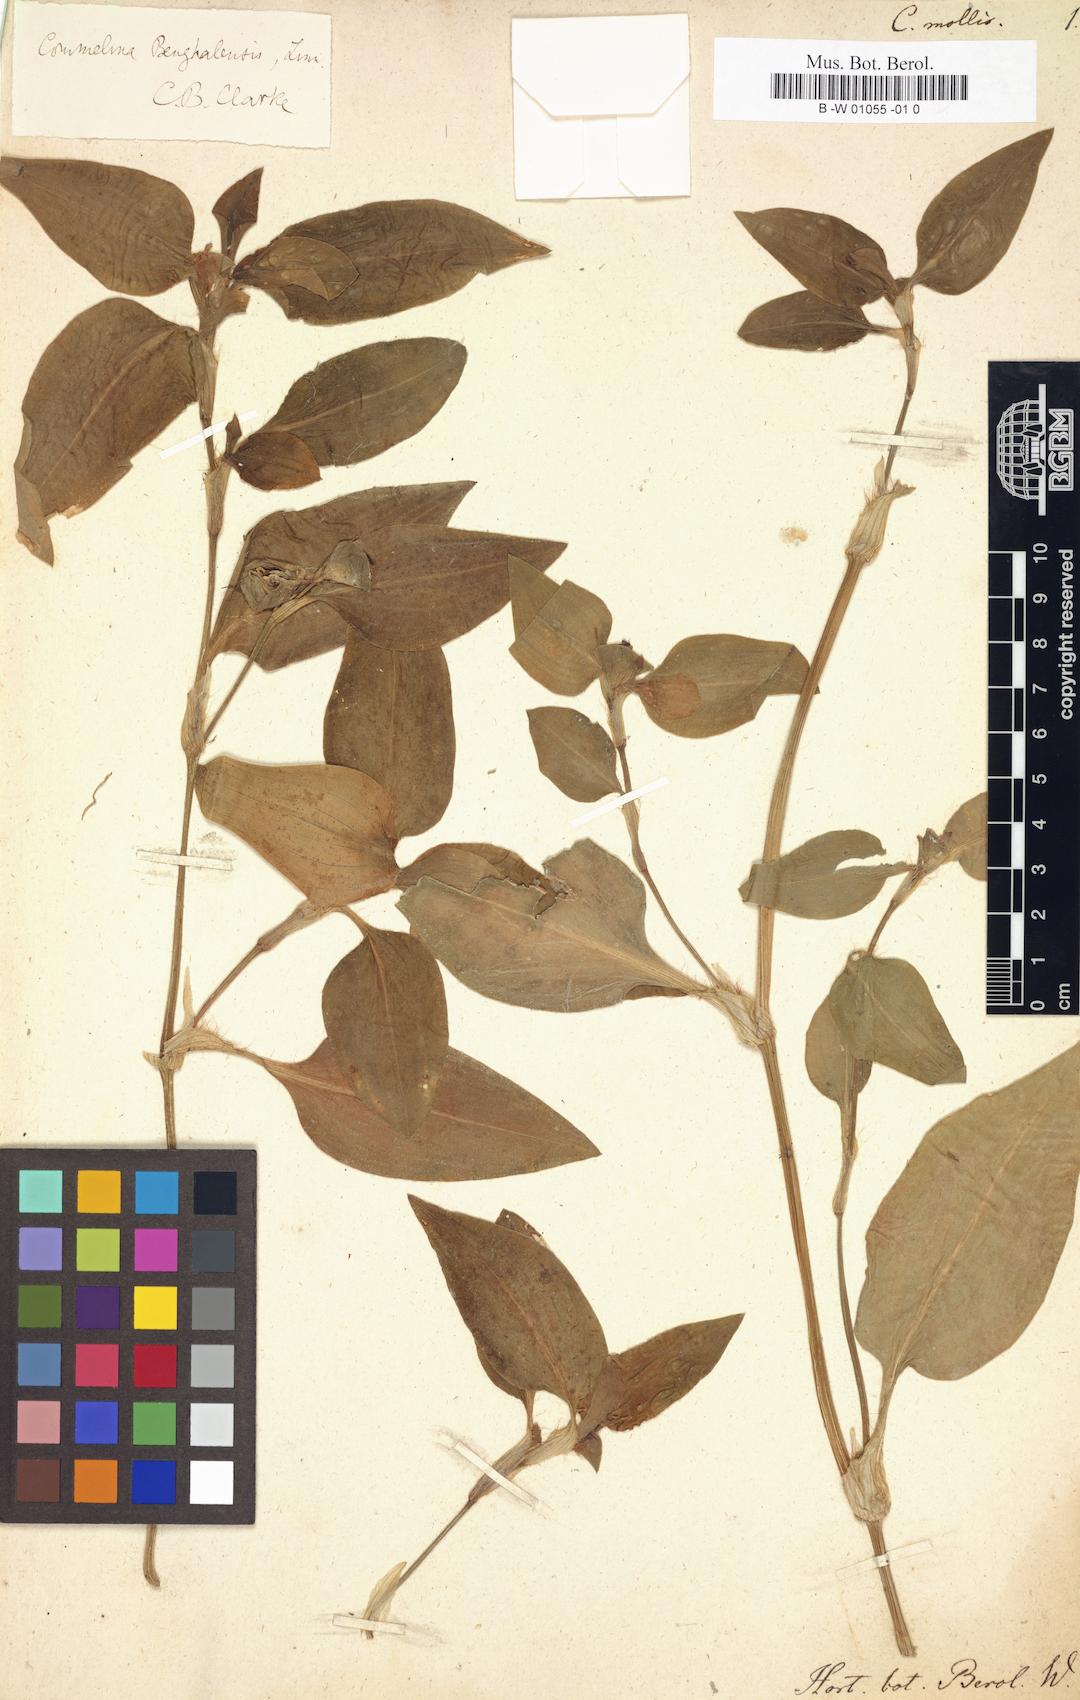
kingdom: Plantae
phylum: Tracheophyta
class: Liliopsida
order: Commelinales
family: Commelinaceae
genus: Commelina
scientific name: Commelina benghalensis
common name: Jio
